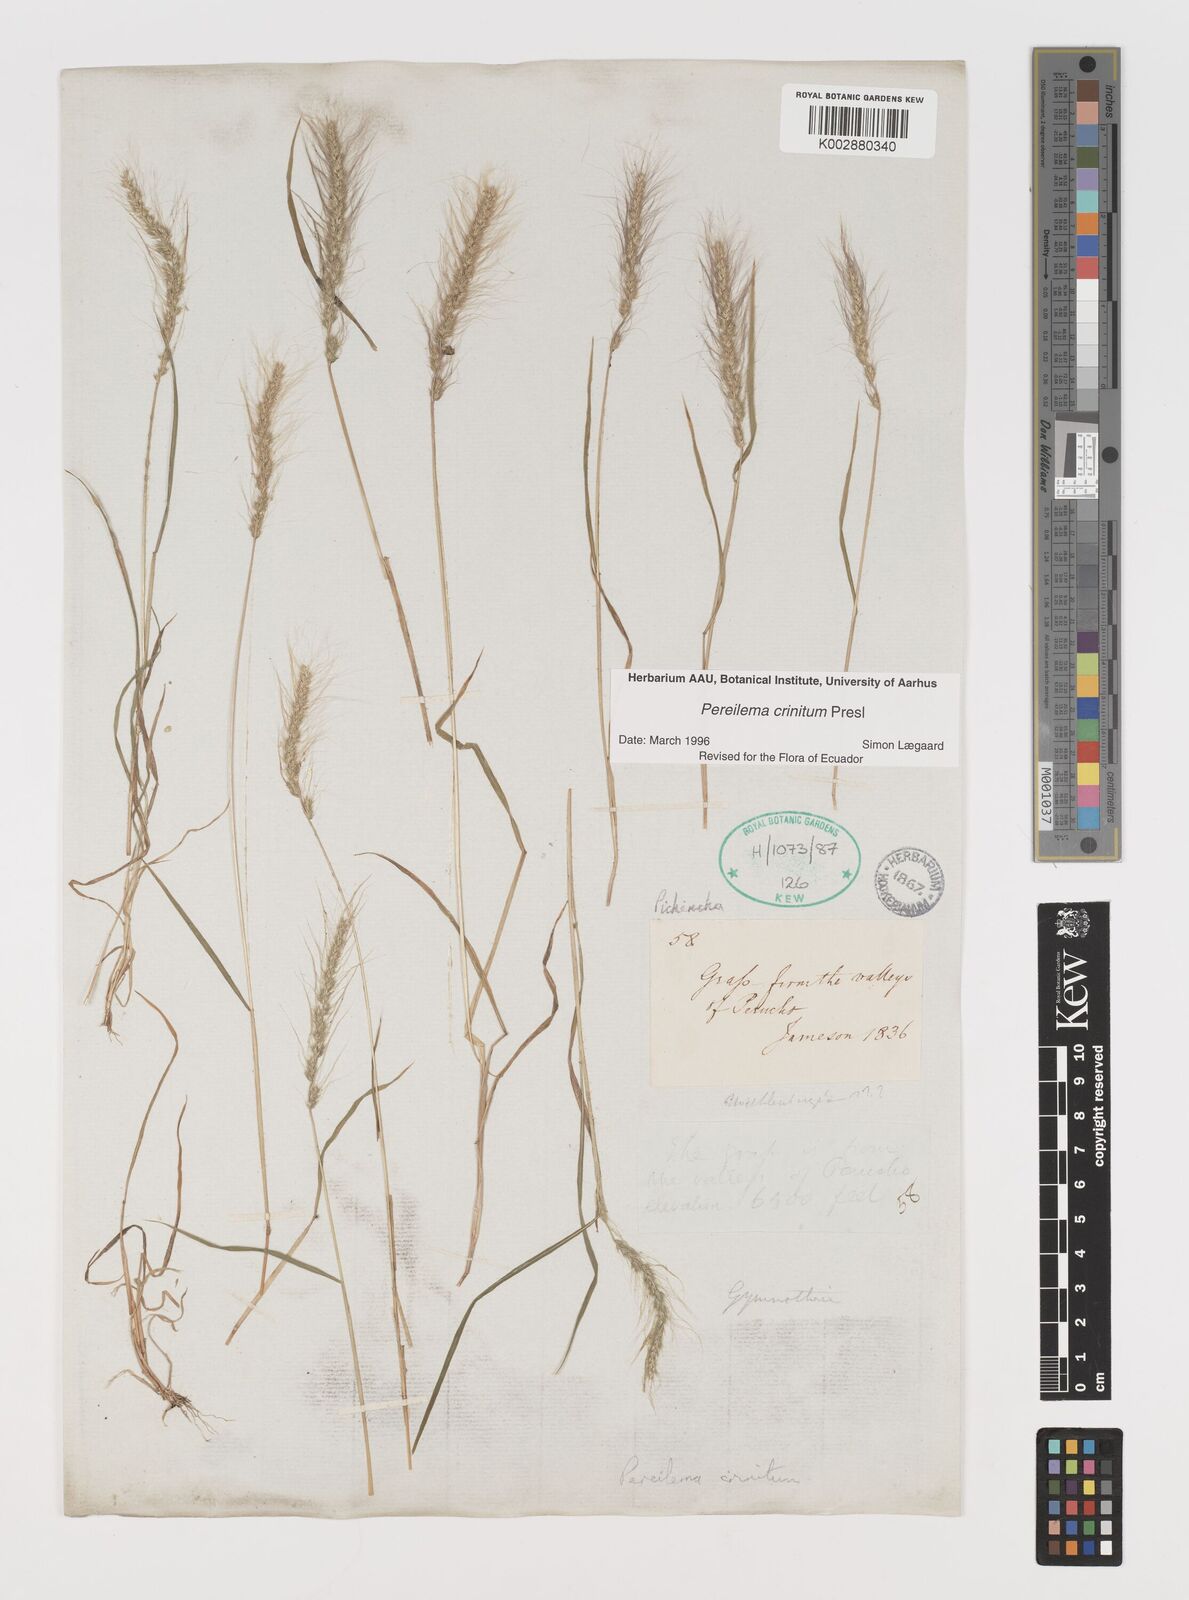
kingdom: Plantae
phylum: Tracheophyta
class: Liliopsida
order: Poales
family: Poaceae
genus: Muhlenbergia
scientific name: Muhlenbergia pereilema
